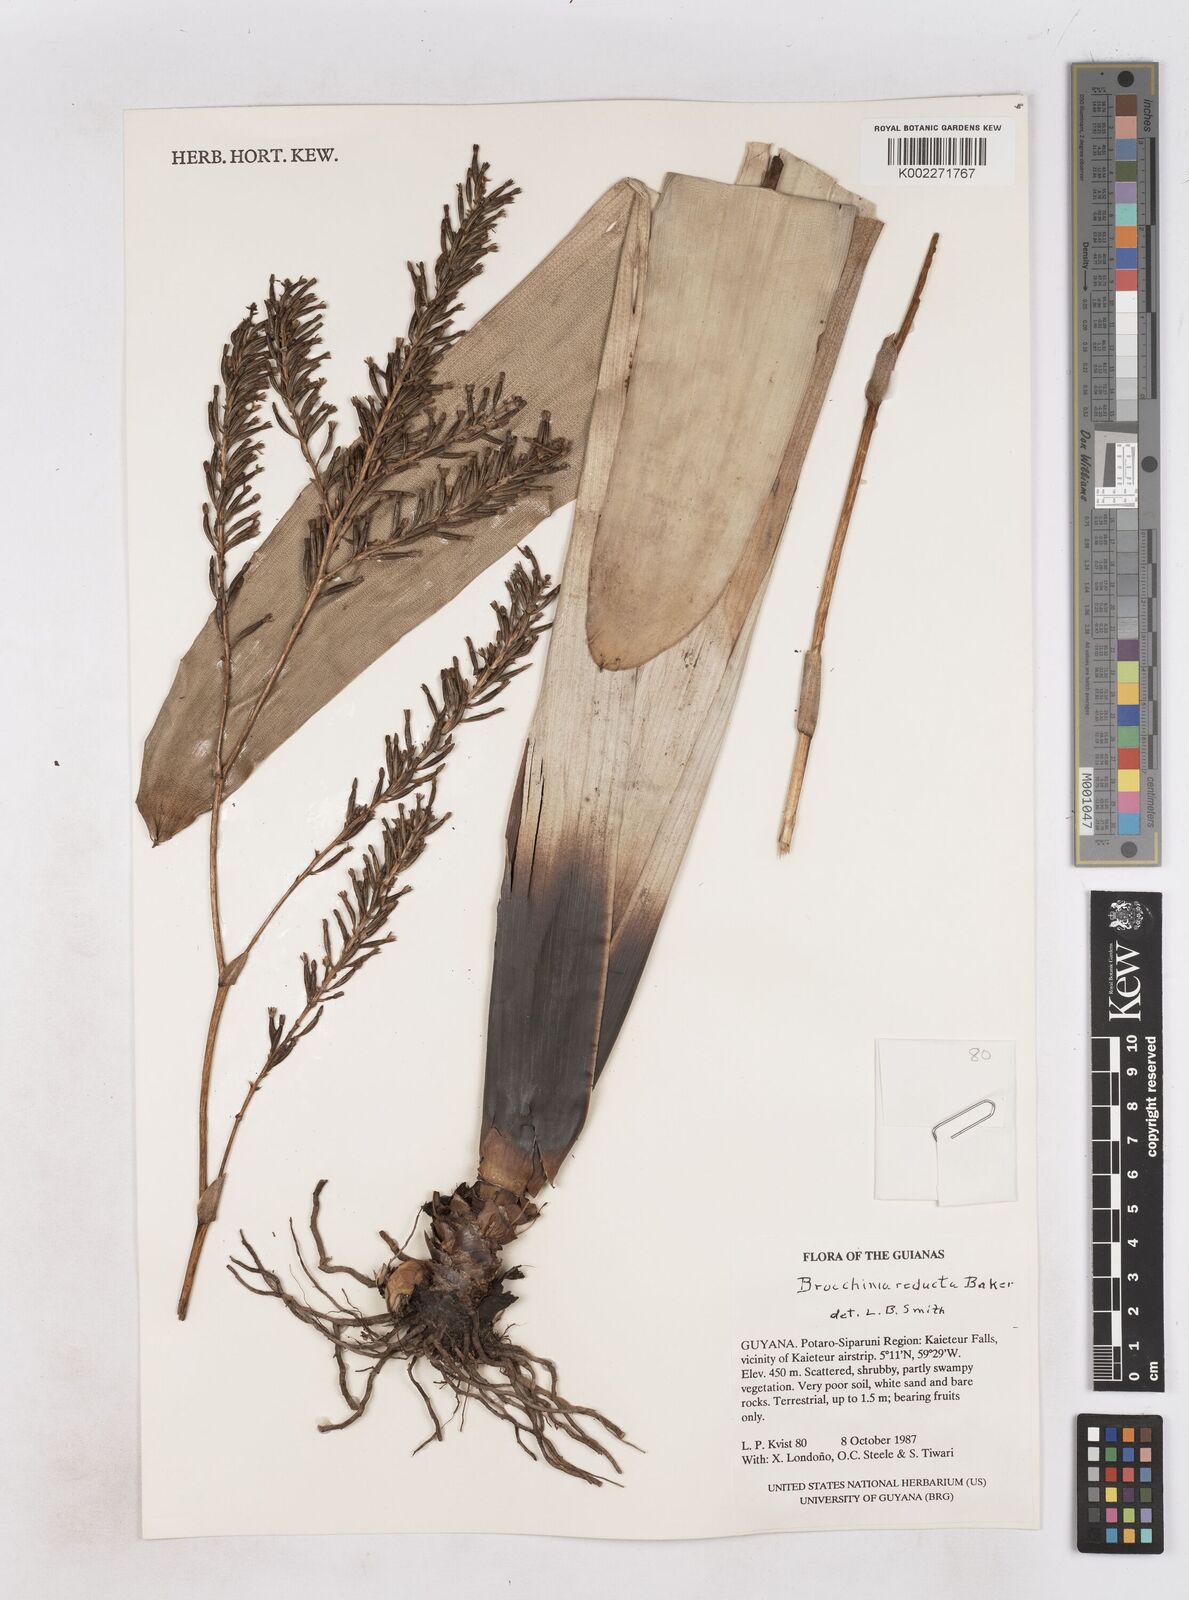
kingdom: Plantae
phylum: Tracheophyta
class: Liliopsida
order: Poales
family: Bromeliaceae
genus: Brocchinia
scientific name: Brocchinia reducta
